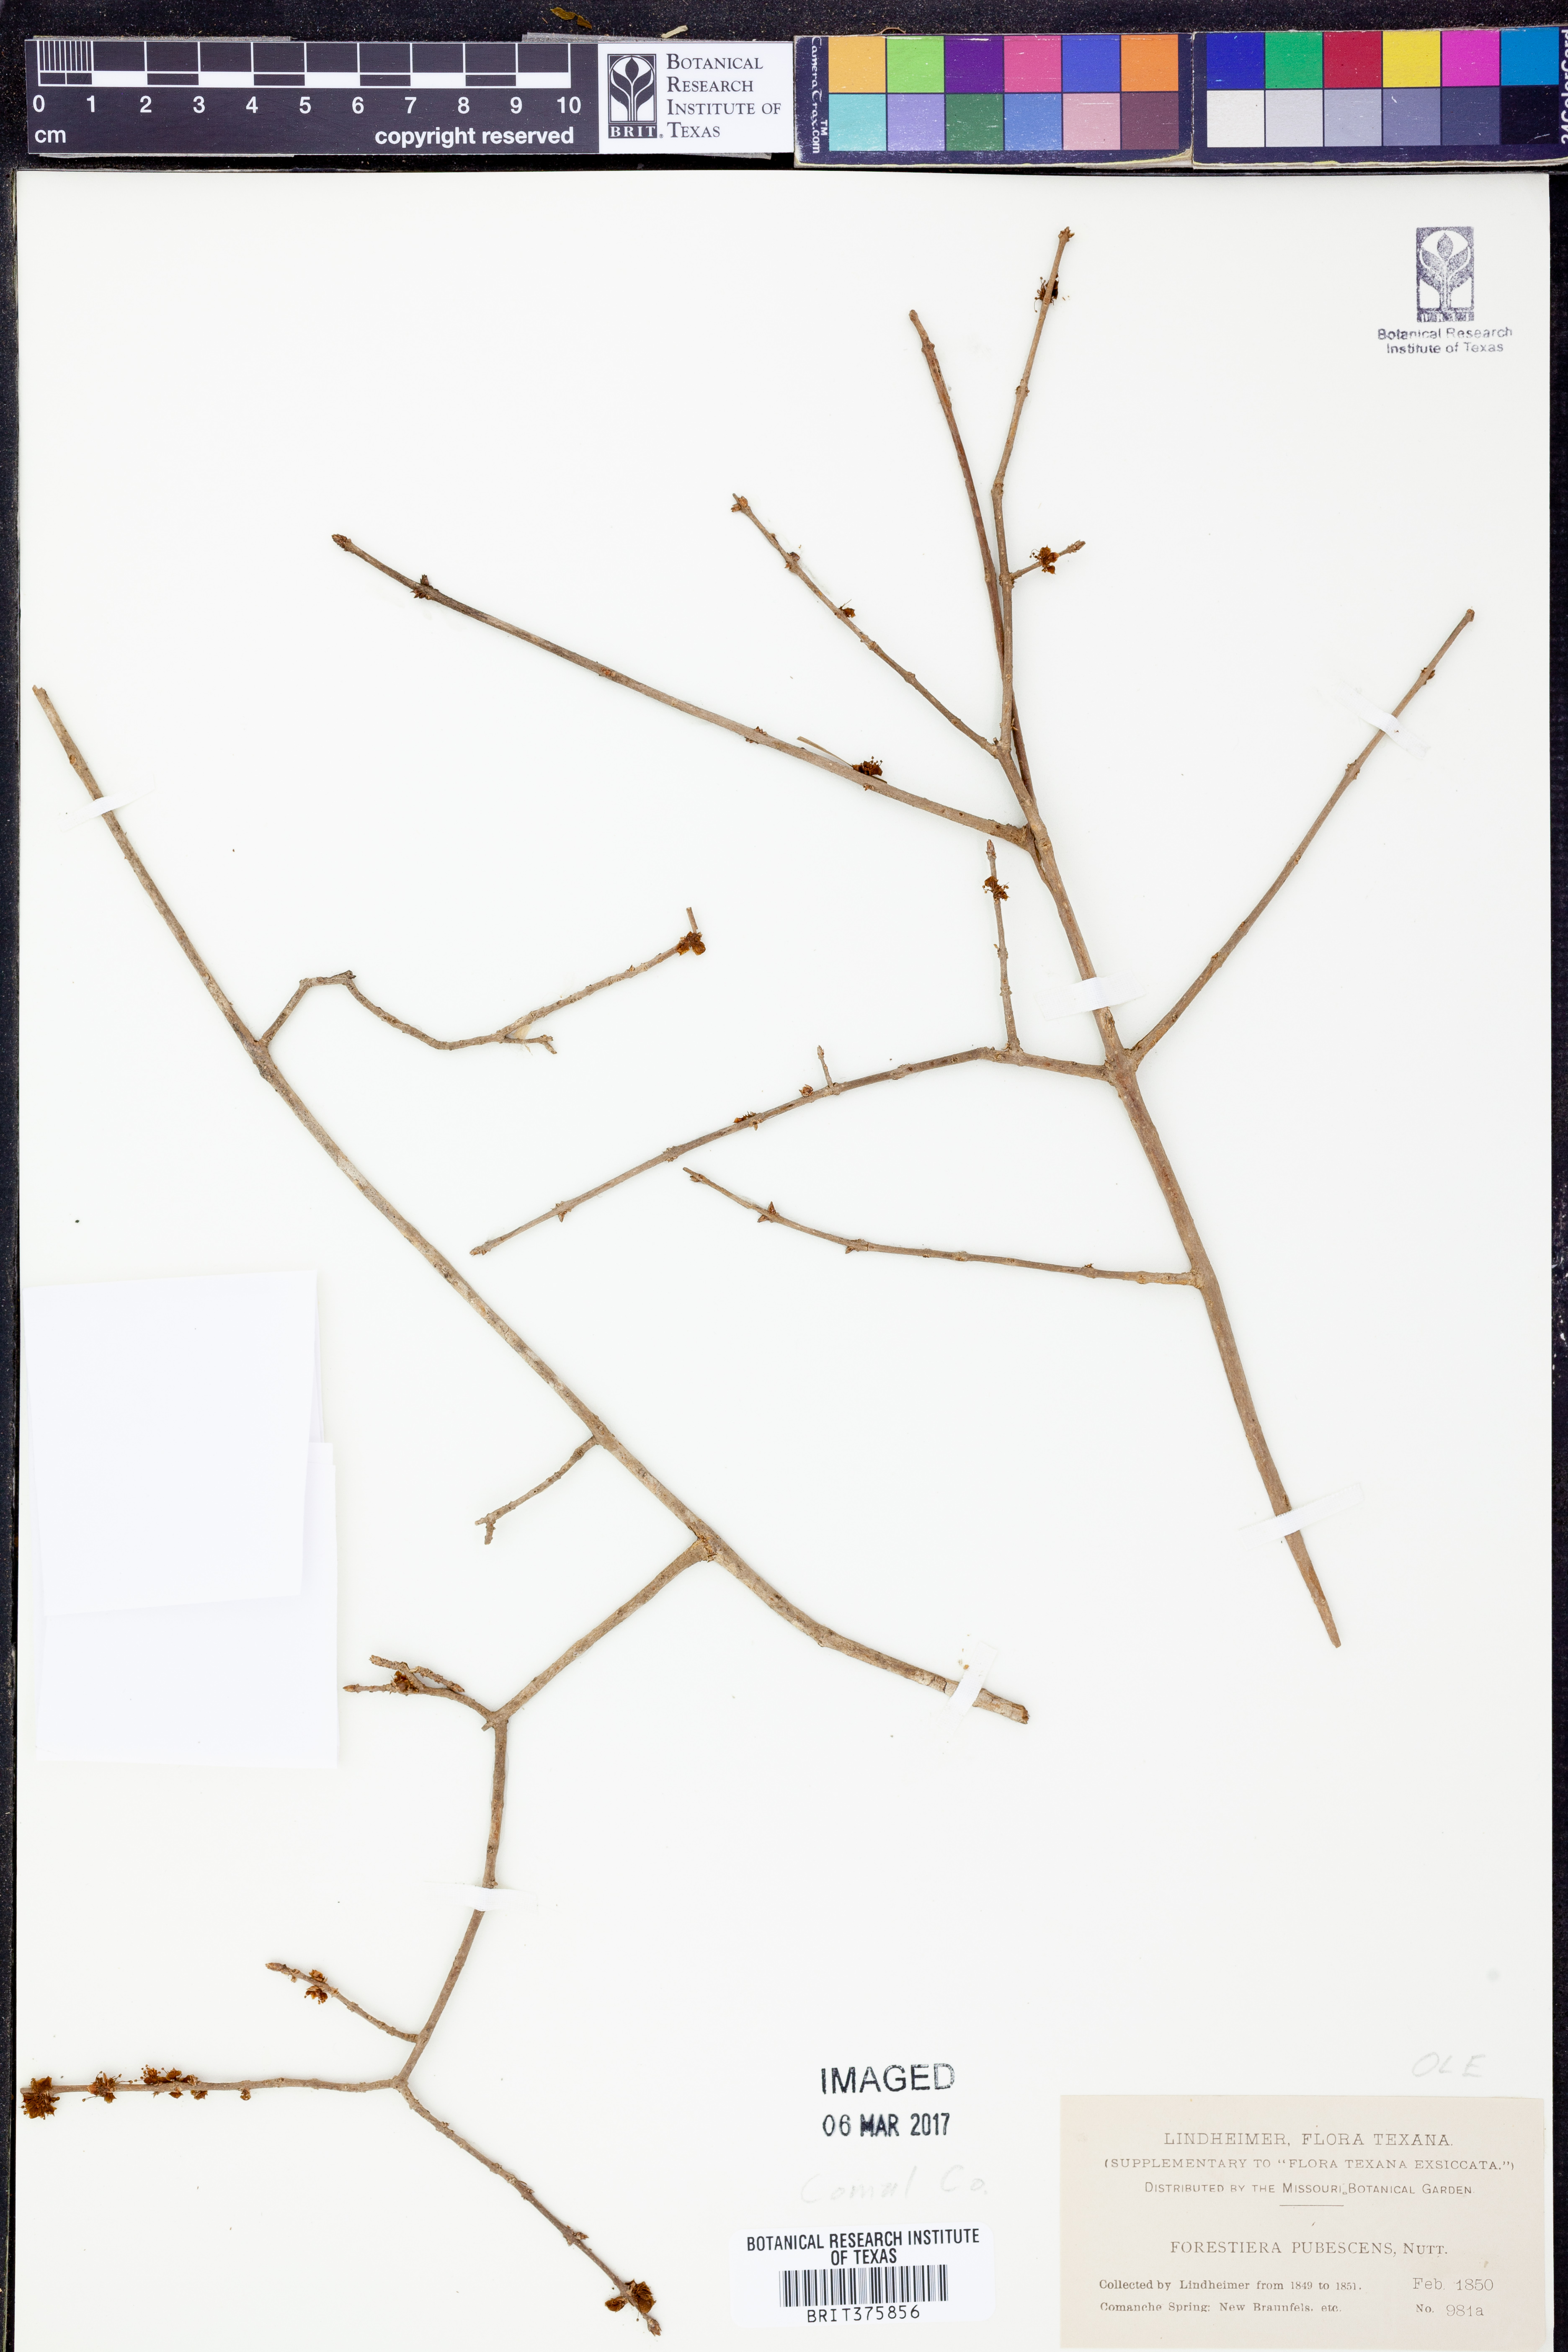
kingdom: Plantae
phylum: Tracheophyta
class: Magnoliopsida
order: Lamiales
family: Oleaceae
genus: Forestiera
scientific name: Forestiera pubescens
